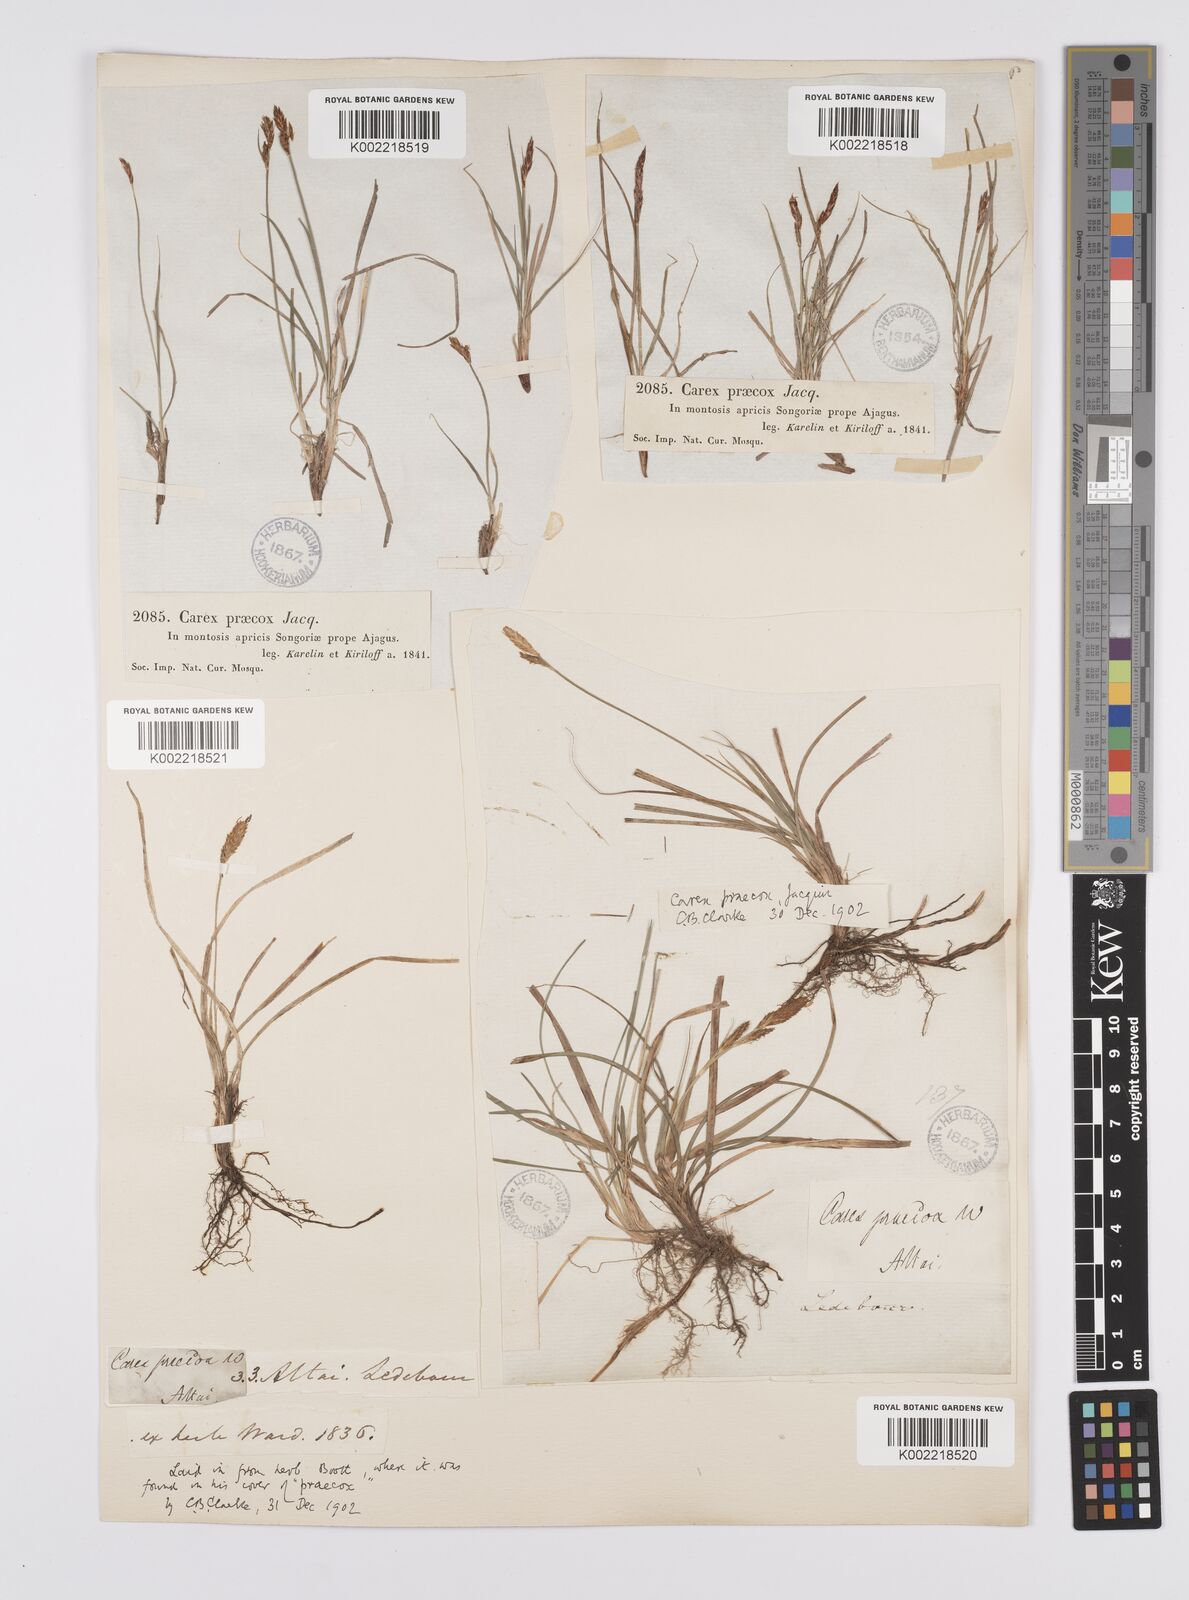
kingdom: Plantae
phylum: Tracheophyta
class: Liliopsida
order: Poales
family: Cyperaceae
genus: Carex
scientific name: Carex caryophyllea
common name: Spring sedge
